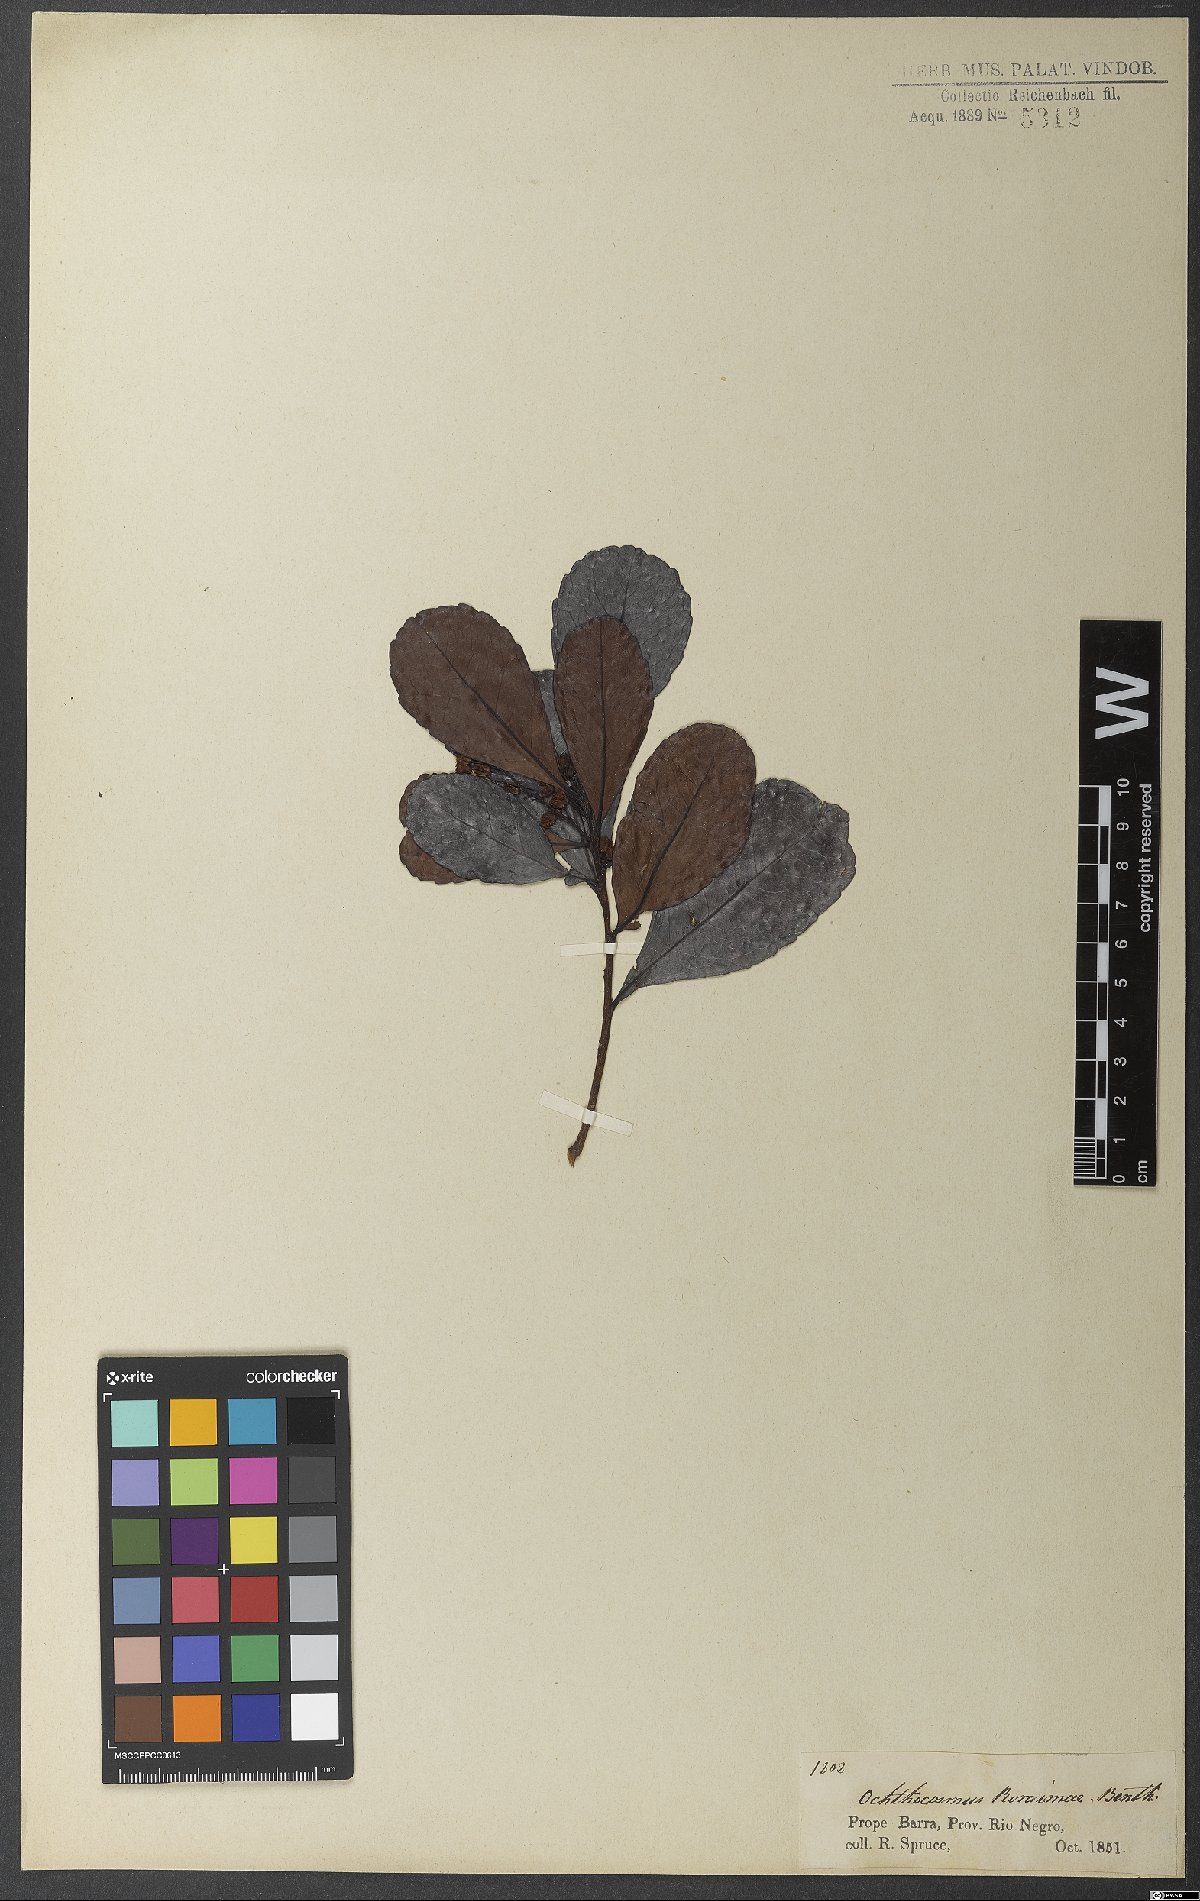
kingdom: Plantae
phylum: Tracheophyta
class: Magnoliopsida
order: Malpighiales
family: Ixonanthaceae
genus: Ochthocosmus
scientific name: Ochthocosmus roraimae
